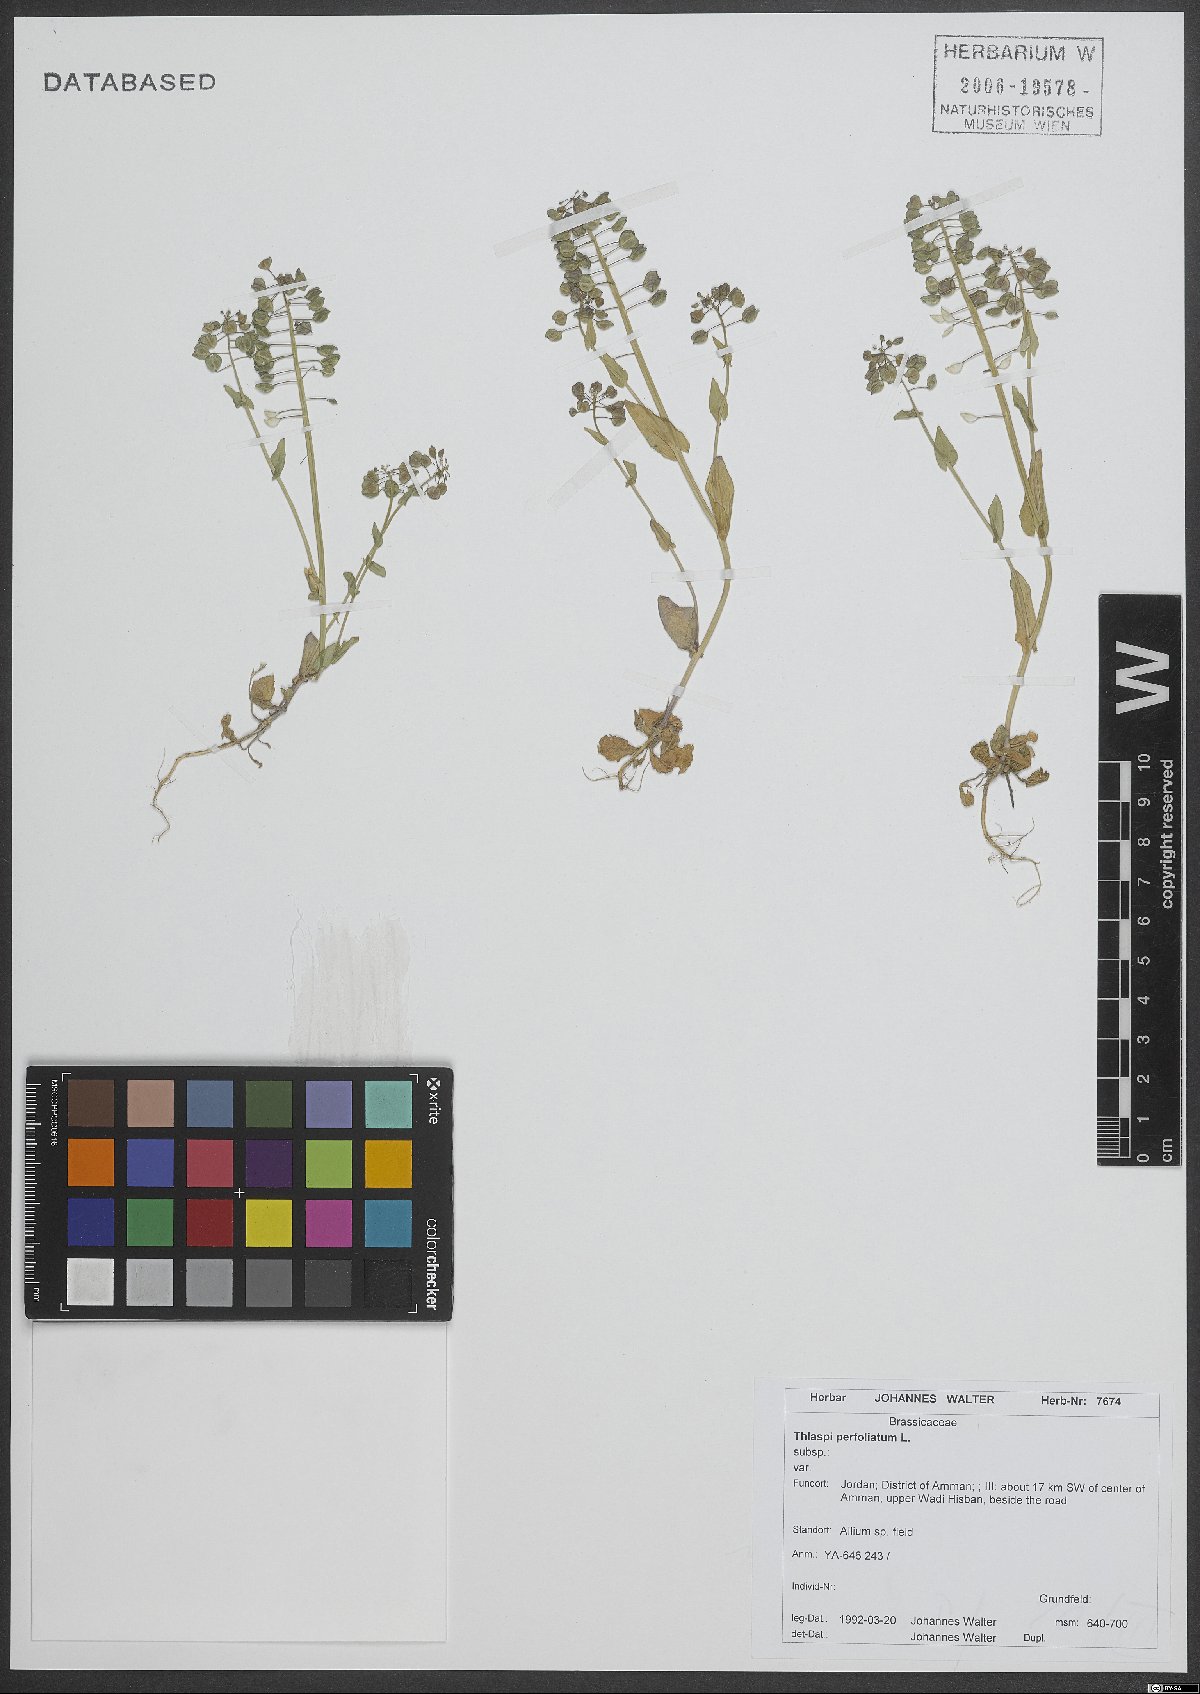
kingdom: Plantae
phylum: Tracheophyta
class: Magnoliopsida
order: Brassicales
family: Brassicaceae
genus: Noccaea
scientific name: Noccaea perfoliata
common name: Perfoliate pennycress
